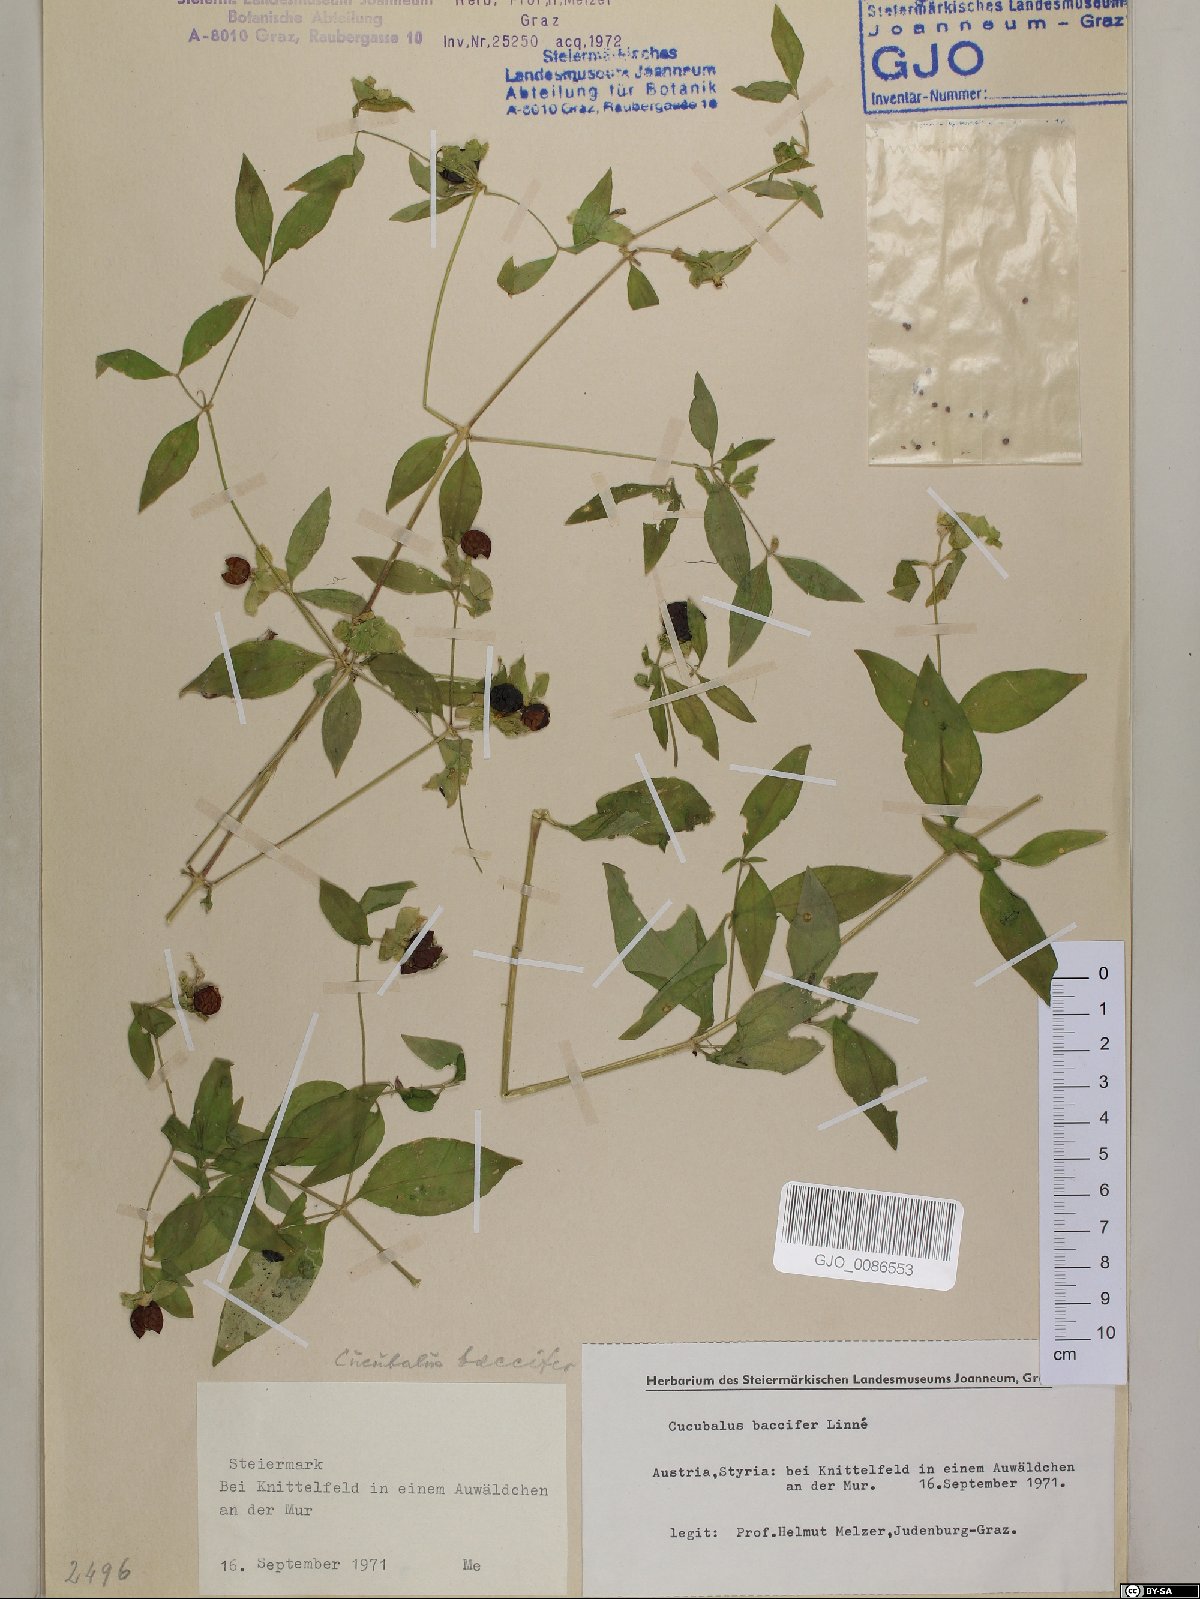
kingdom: Plantae
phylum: Tracheophyta
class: Magnoliopsida
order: Caryophyllales
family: Caryophyllaceae
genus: Silene
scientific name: Silene baccifera
